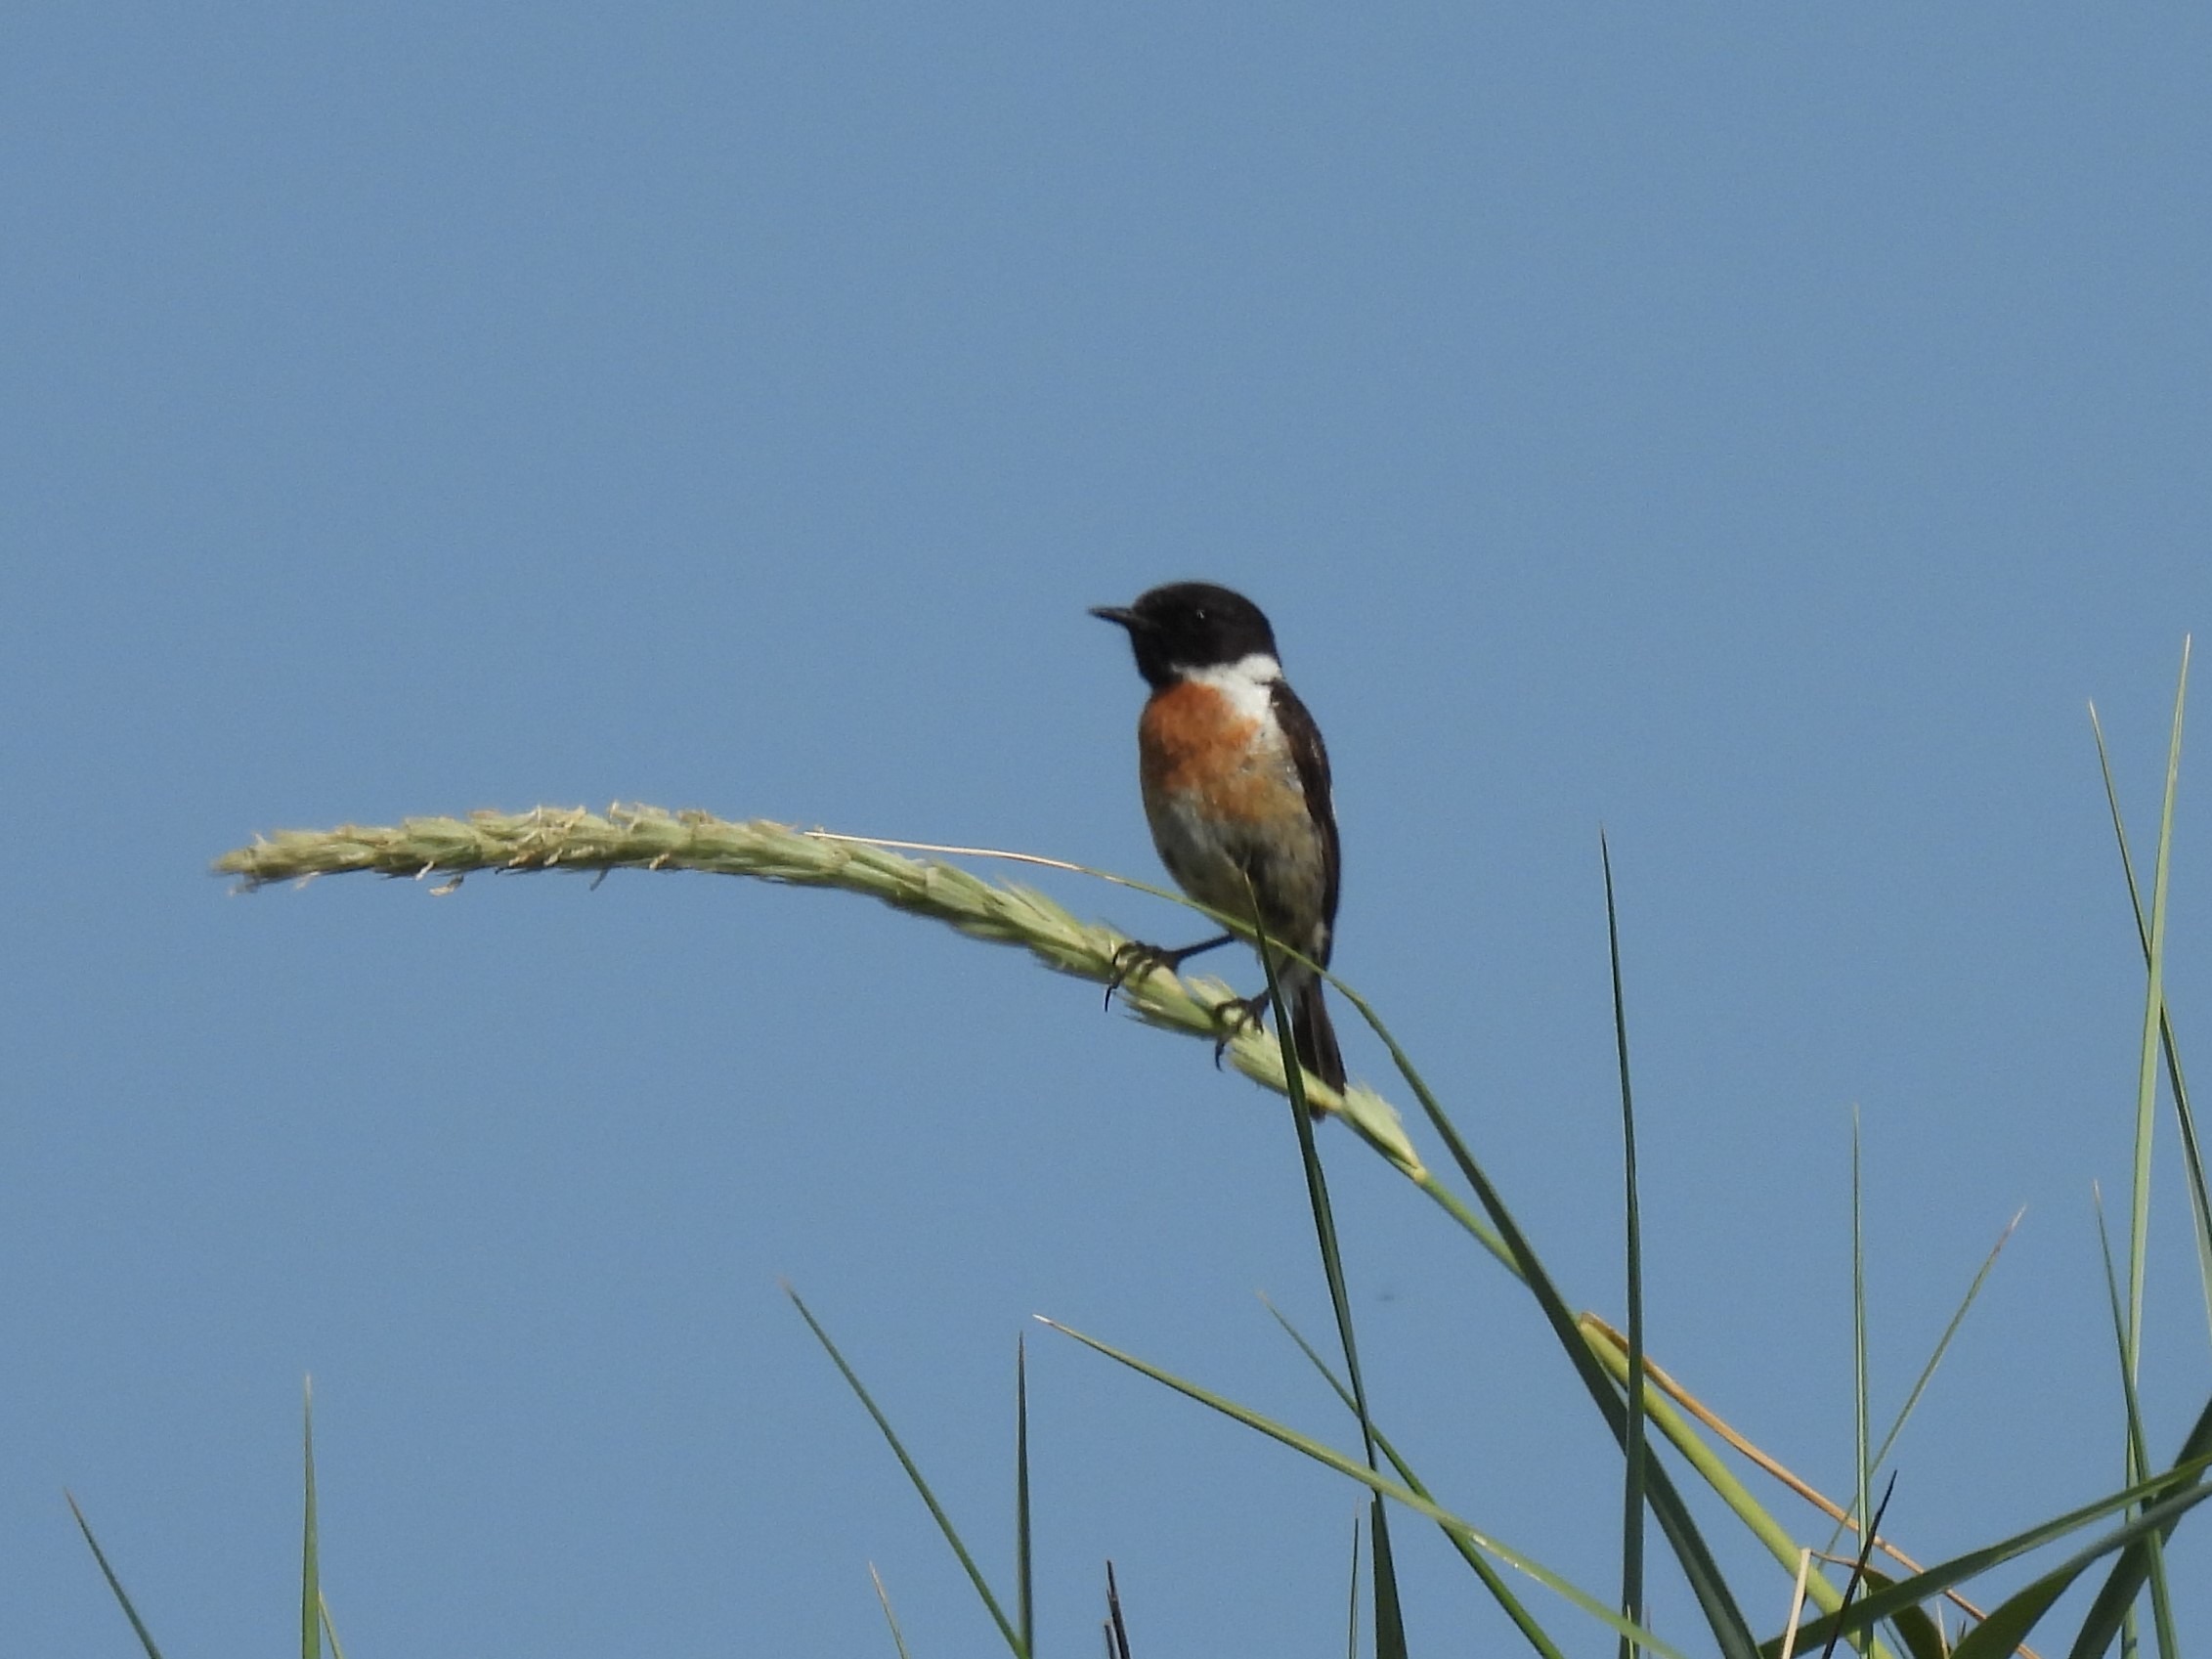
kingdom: Animalia
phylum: Chordata
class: Aves
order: Passeriformes
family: Muscicapidae
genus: Saxicola
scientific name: Saxicola rubicola
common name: Sortstrubet bynkefugl
